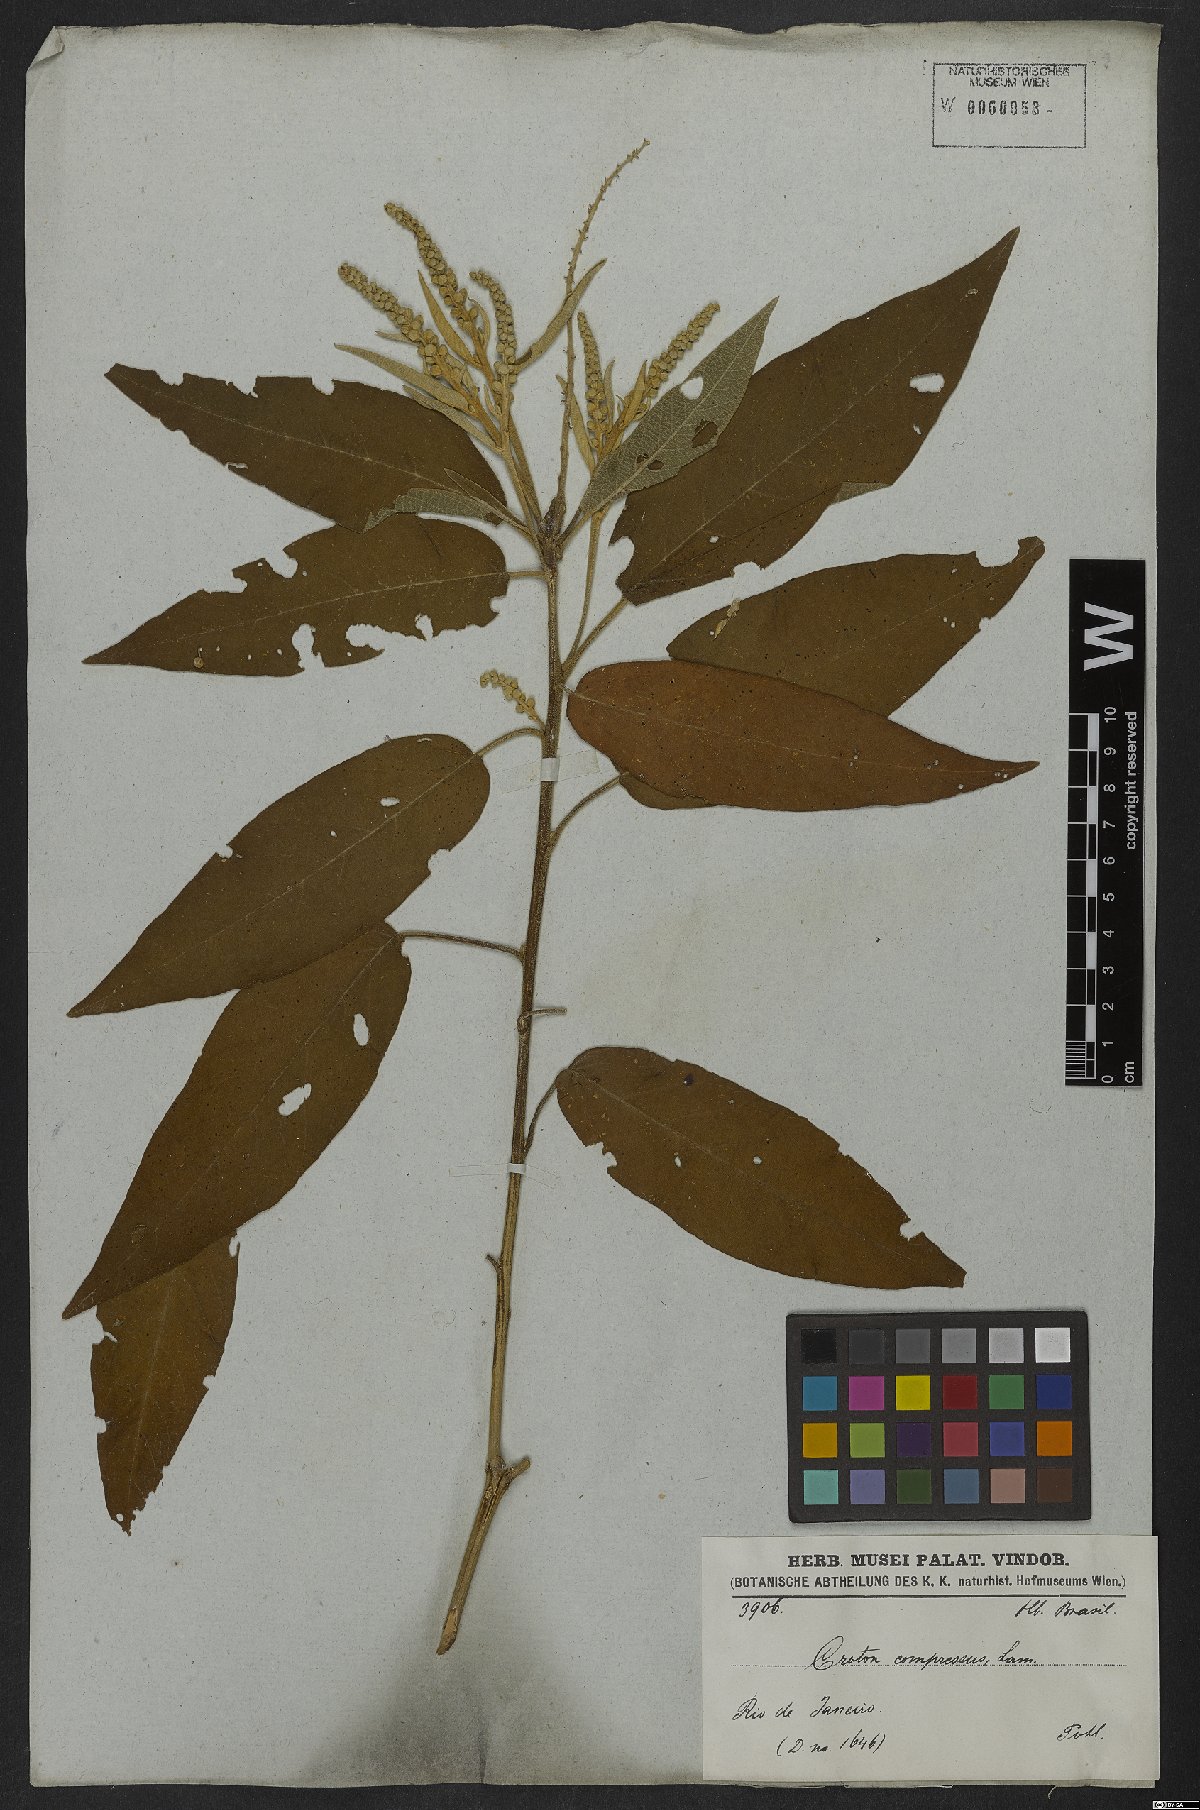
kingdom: Plantae
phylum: Tracheophyta
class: Magnoliopsida
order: Malpighiales
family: Euphorbiaceae
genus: Croton
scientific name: Croton compressus
